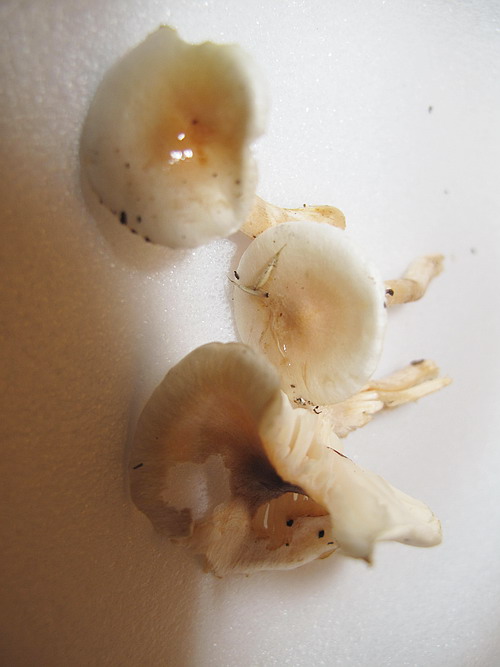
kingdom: Fungi
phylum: Basidiomycota
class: Agaricomycetes
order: Agaricales
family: Hygrophoraceae
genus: Hygrophorus
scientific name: Hygrophorus unicolor
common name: orangeøjet sneglehat
